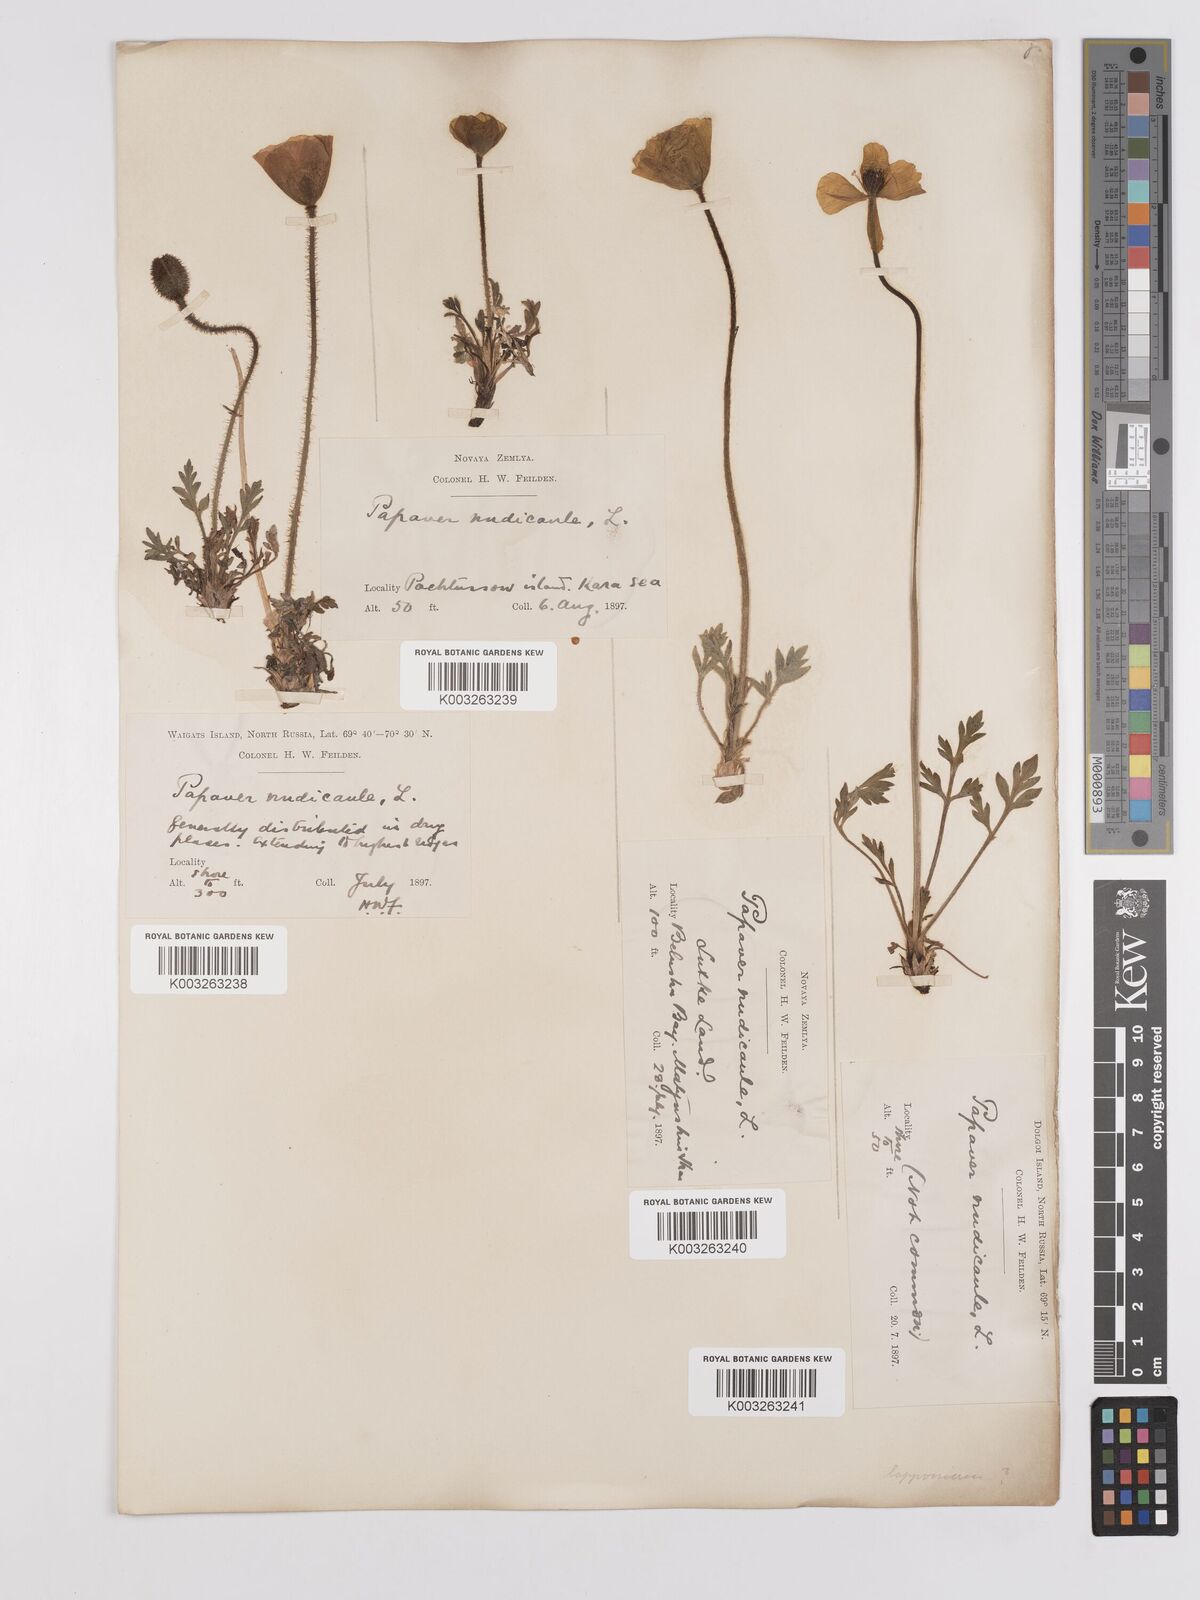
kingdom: Plantae
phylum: Tracheophyta
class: Magnoliopsida
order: Ranunculales
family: Papaveraceae
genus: Papaver
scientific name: Papaver radicatum
